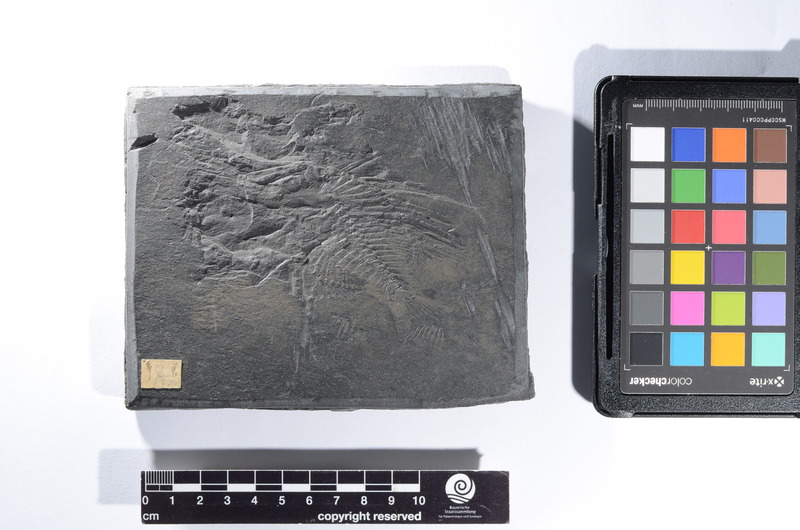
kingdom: Animalia
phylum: Chordata
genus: Acanus
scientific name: Acanus
